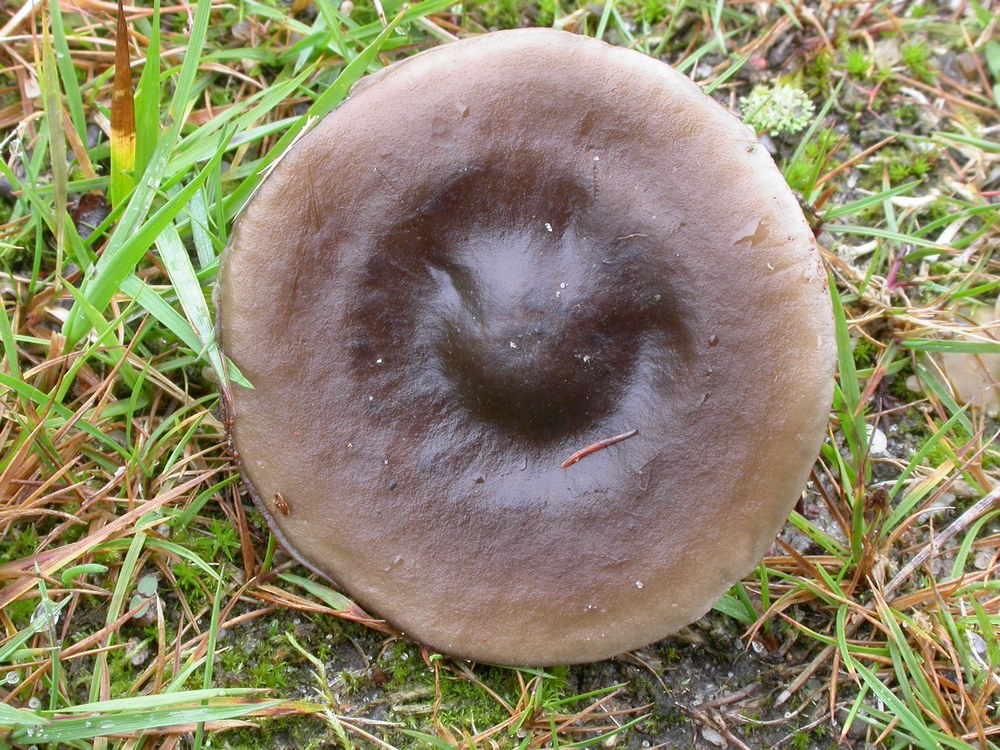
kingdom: Fungi
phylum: Basidiomycota
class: Agaricomycetes
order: Agaricales
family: Tricholomataceae
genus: Melanoleuca
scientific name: Melanoleuca polioleuca
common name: hvidbladet munkehat
